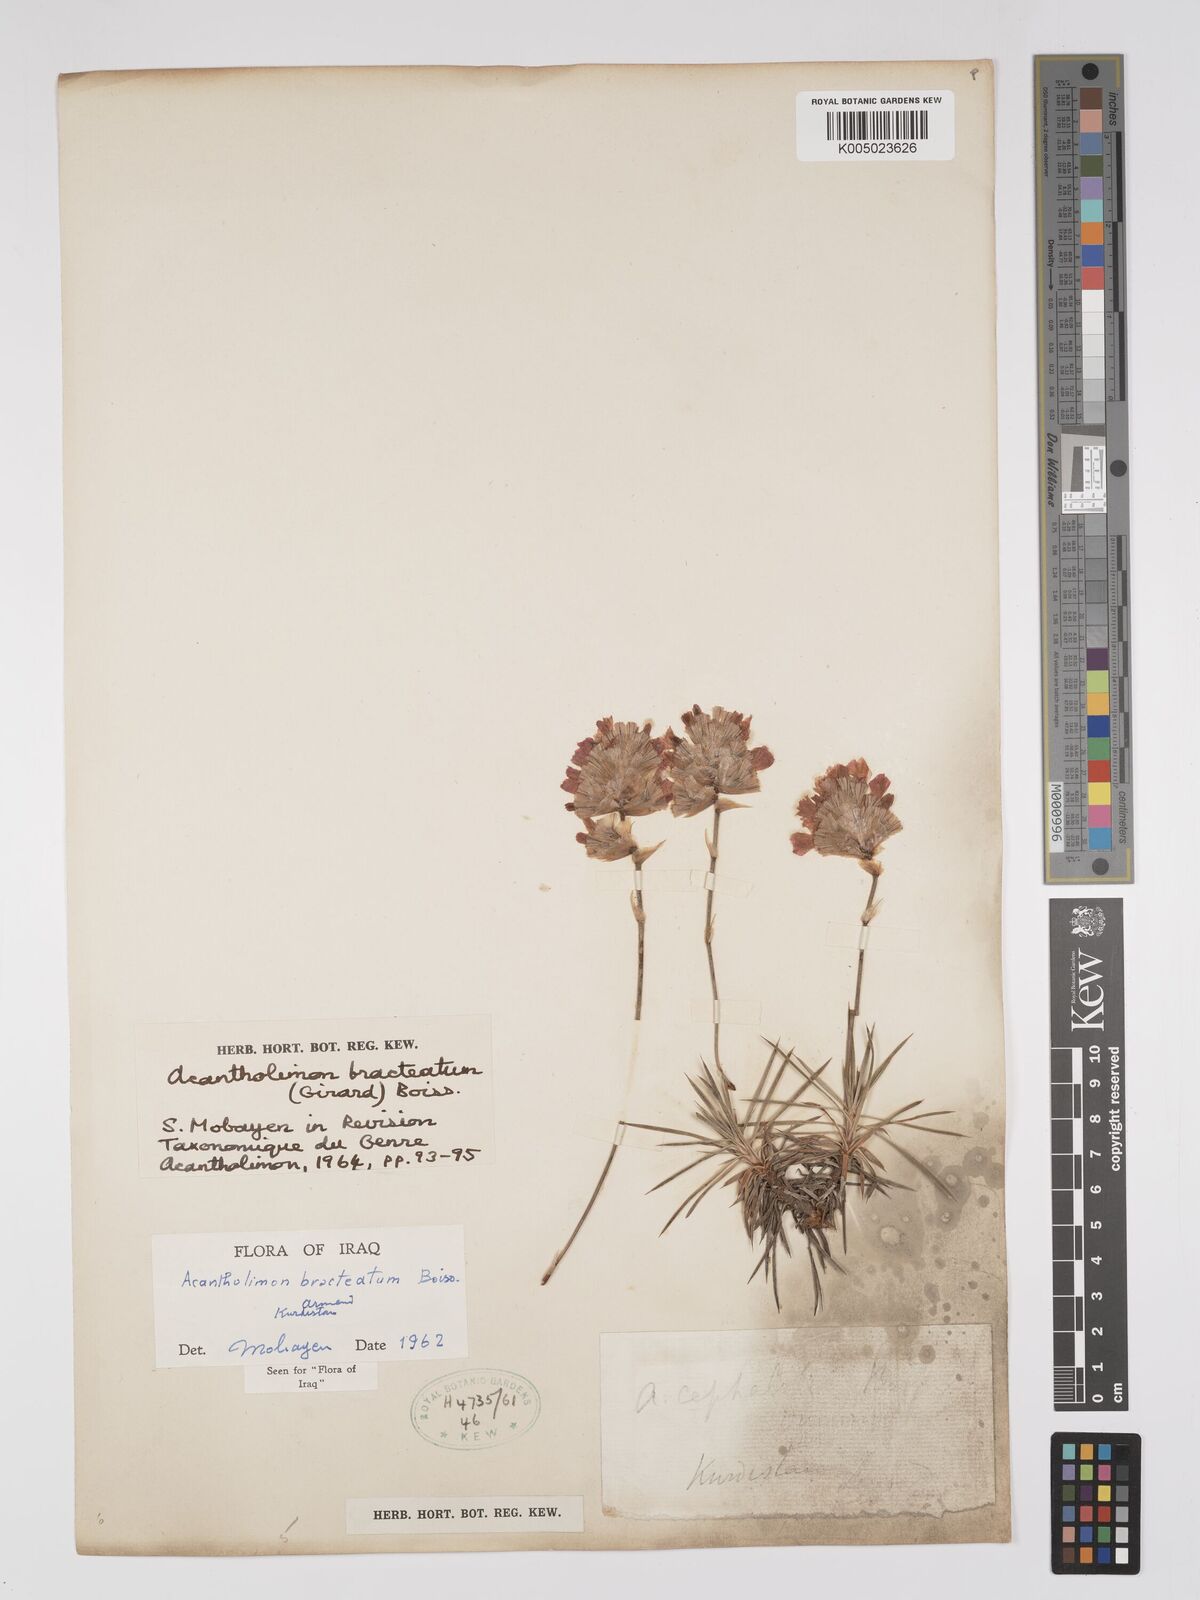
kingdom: Plantae
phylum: Tracheophyta
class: Magnoliopsida
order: Caryophyllales
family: Plumbaginaceae
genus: Acantholimon
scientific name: Acantholimon bracteatum
